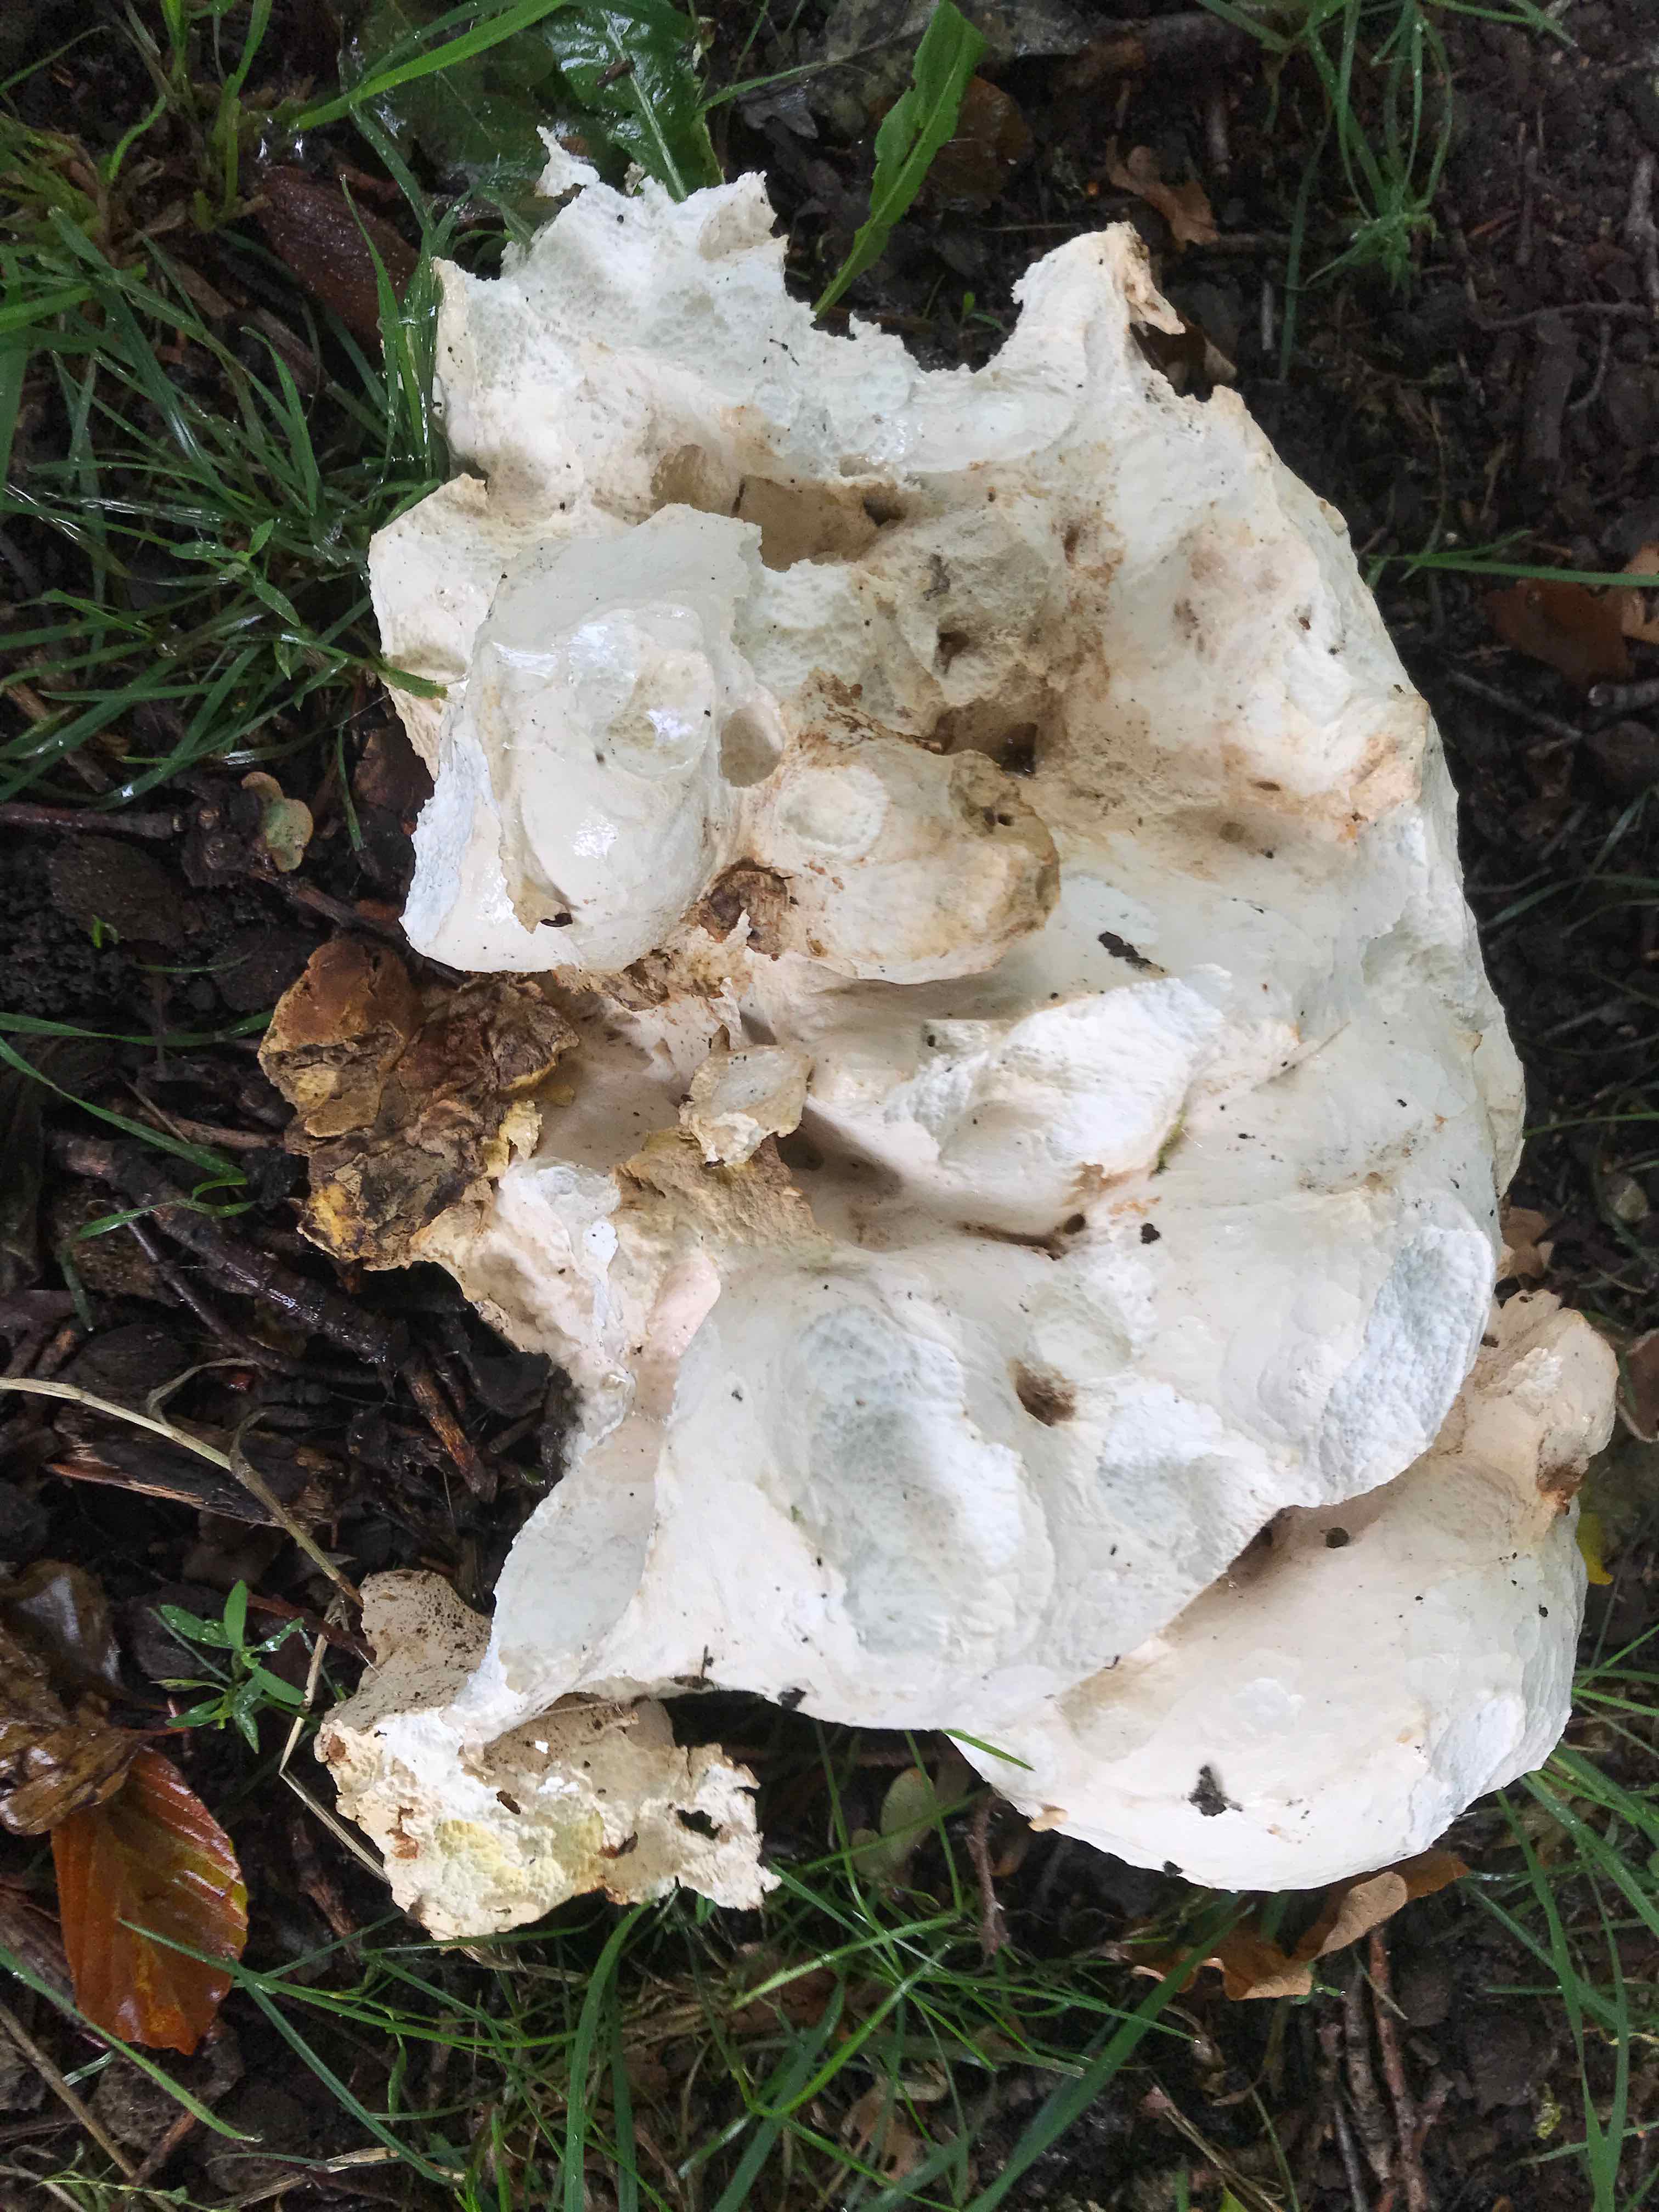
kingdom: Fungi
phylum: Basidiomycota
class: Agaricomycetes
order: Agaricales
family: Lycoperdaceae
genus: Calvatia
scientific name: Calvatia gigantea
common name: kæmpestøvbold
